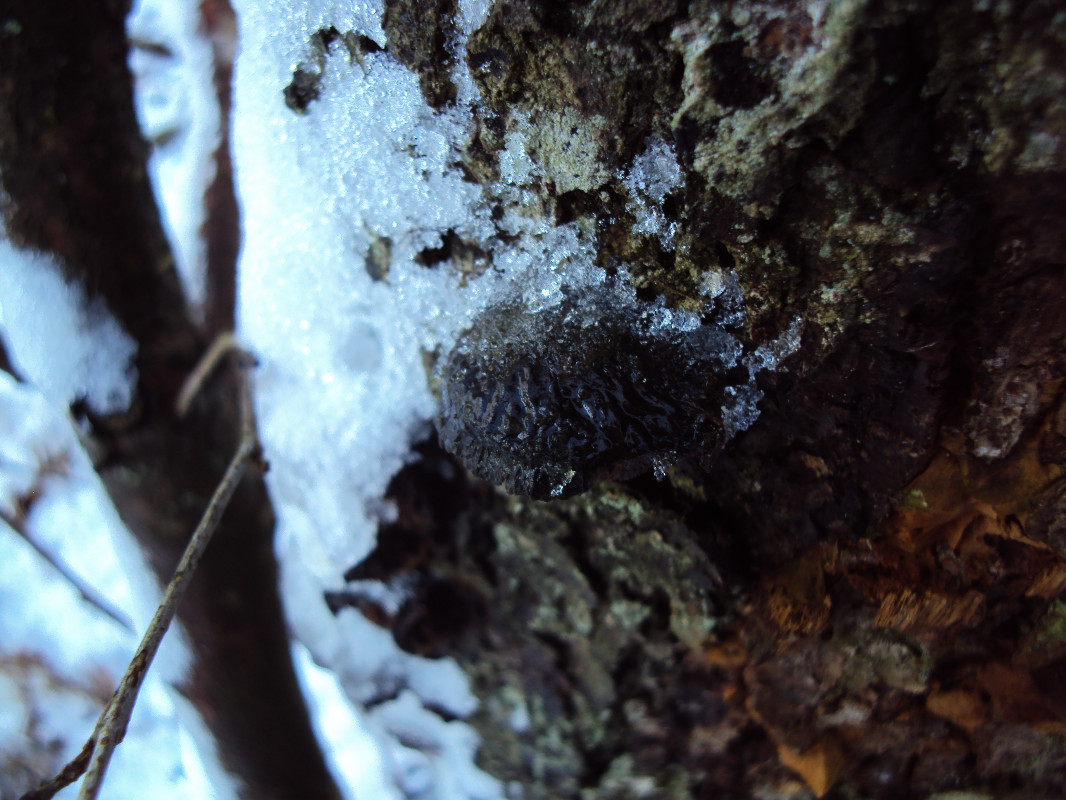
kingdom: Fungi
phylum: Basidiomycota
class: Agaricomycetes
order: Hymenochaetales
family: Hymenochaetaceae
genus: Xanthoporia
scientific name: Xanthoporia radiata
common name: elle-spejlporesvamp
